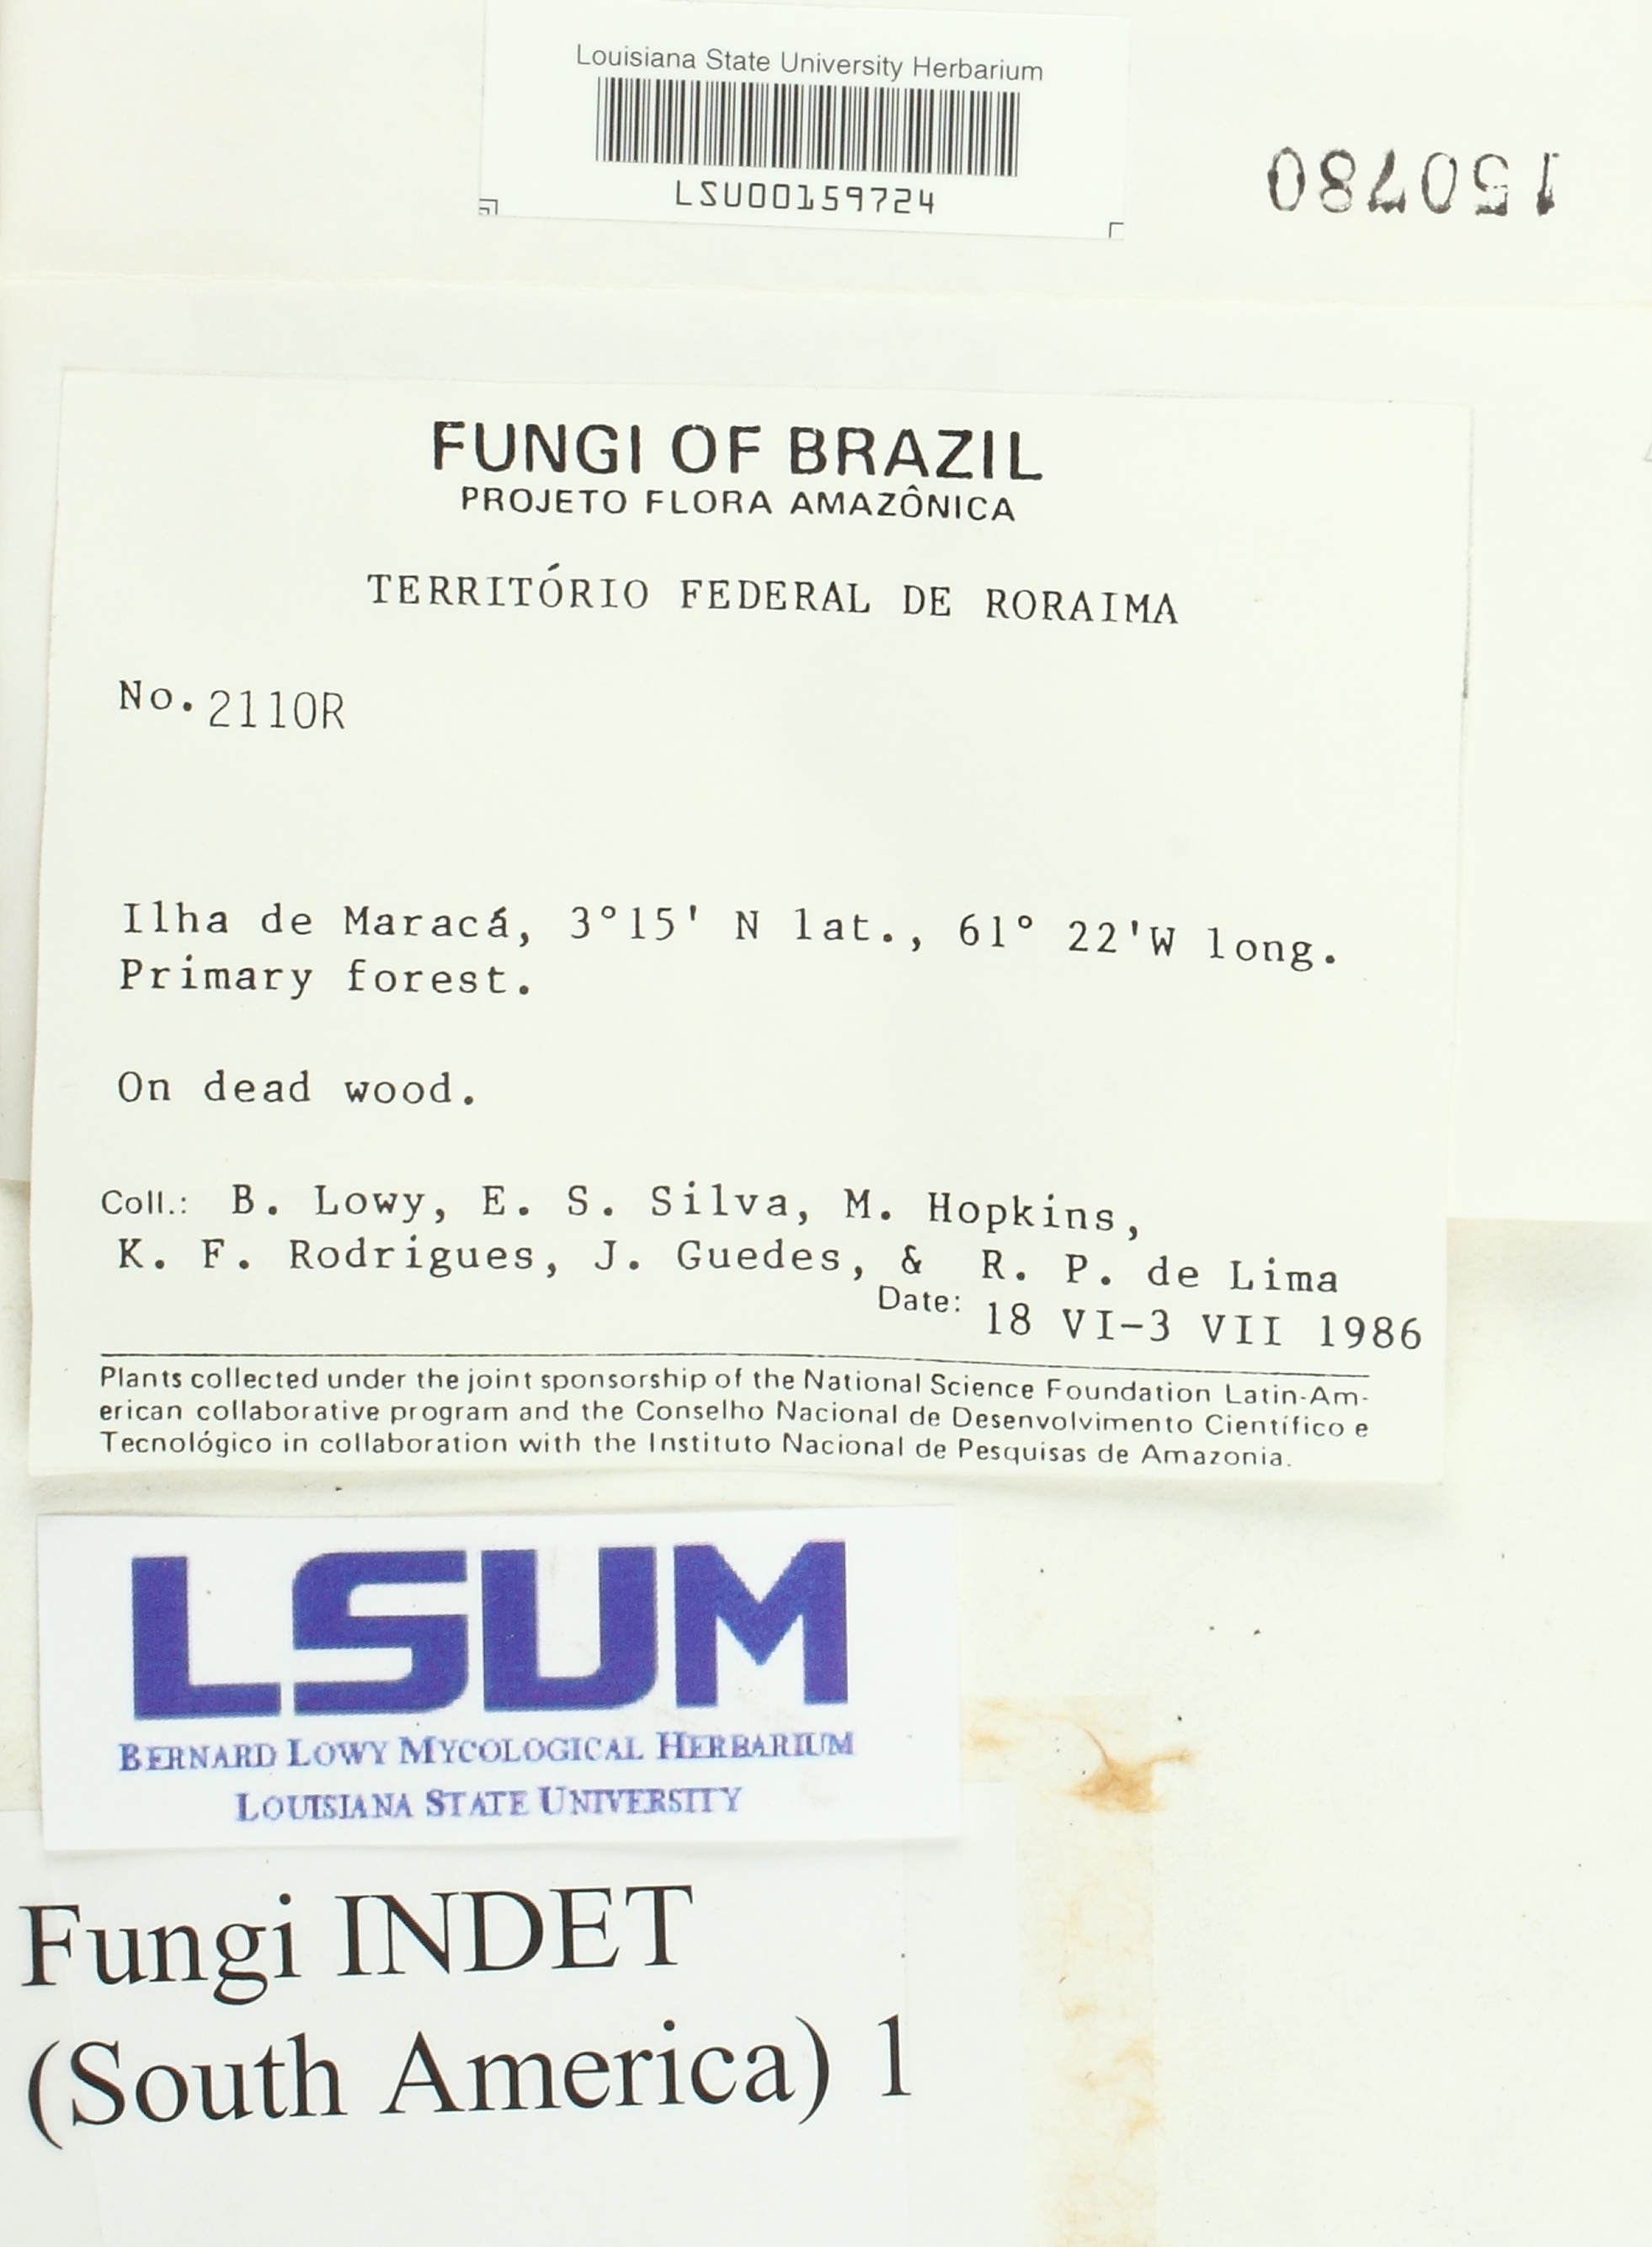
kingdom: Fungi
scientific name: Fungi
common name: Fungi
